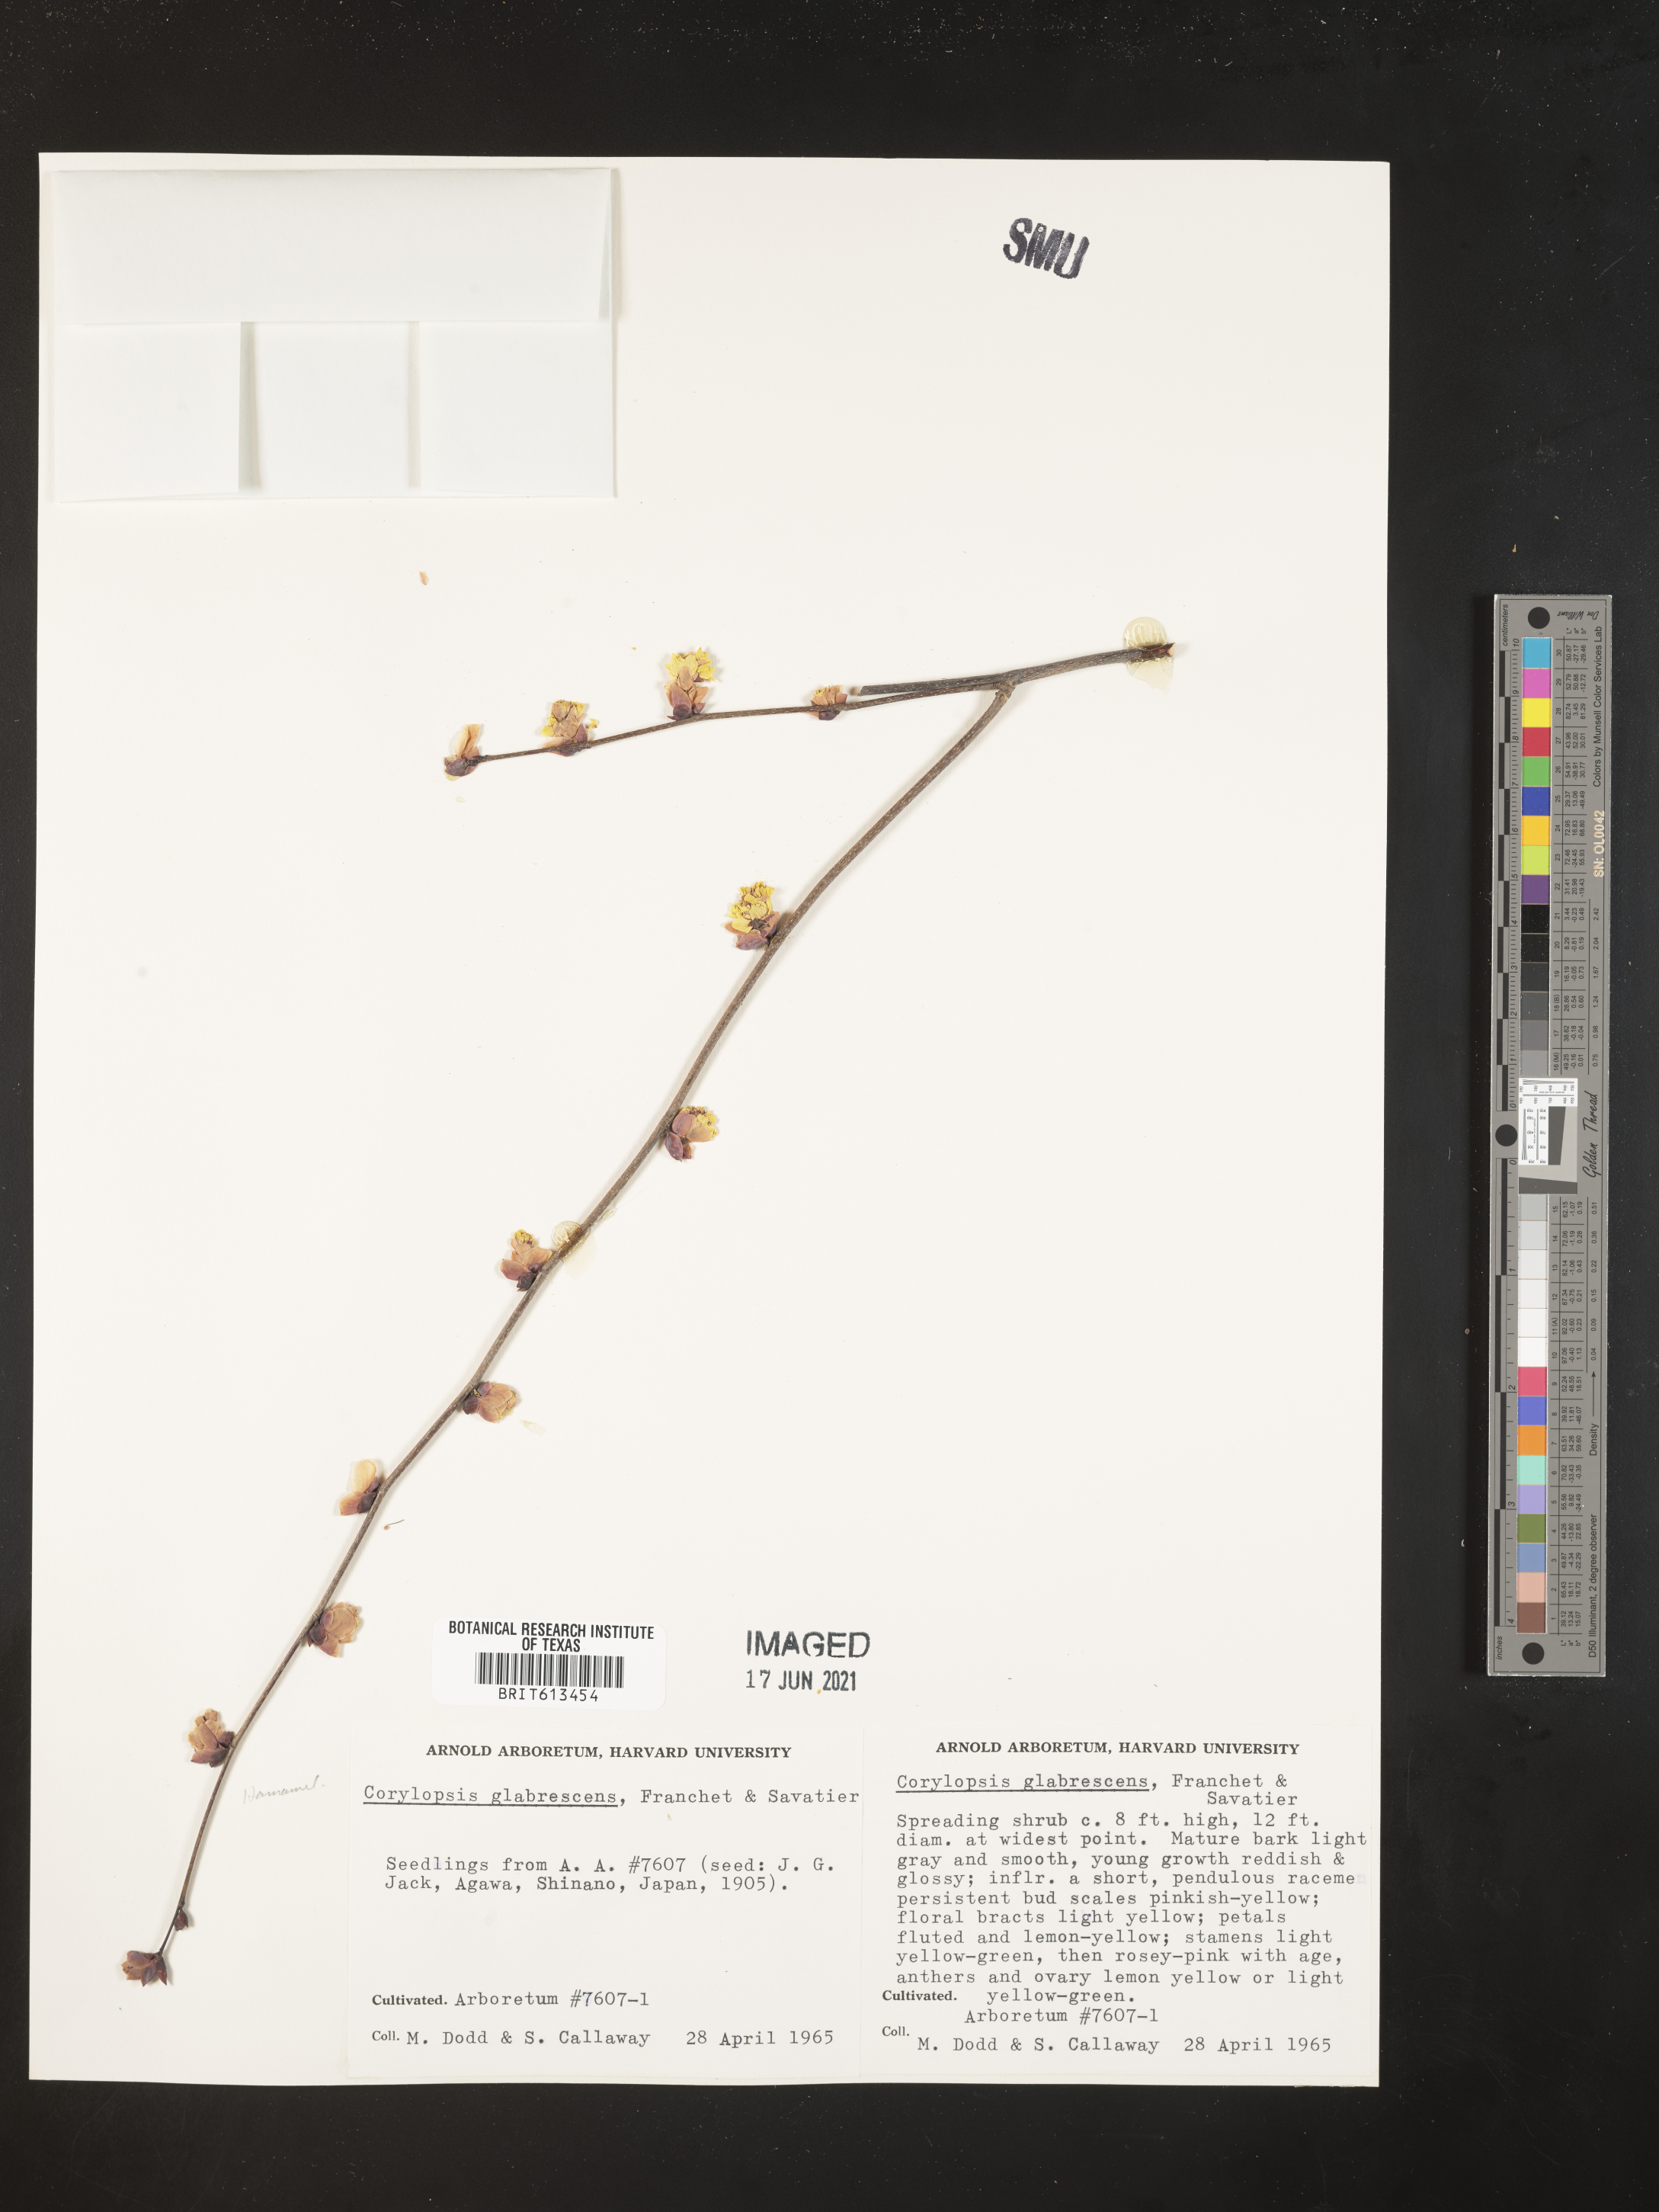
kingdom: Plantae
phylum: Tracheophyta
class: Magnoliopsida
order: Saxifragales
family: Hamamelidaceae
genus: Corylopsis
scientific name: Corylopsis glabrescens
